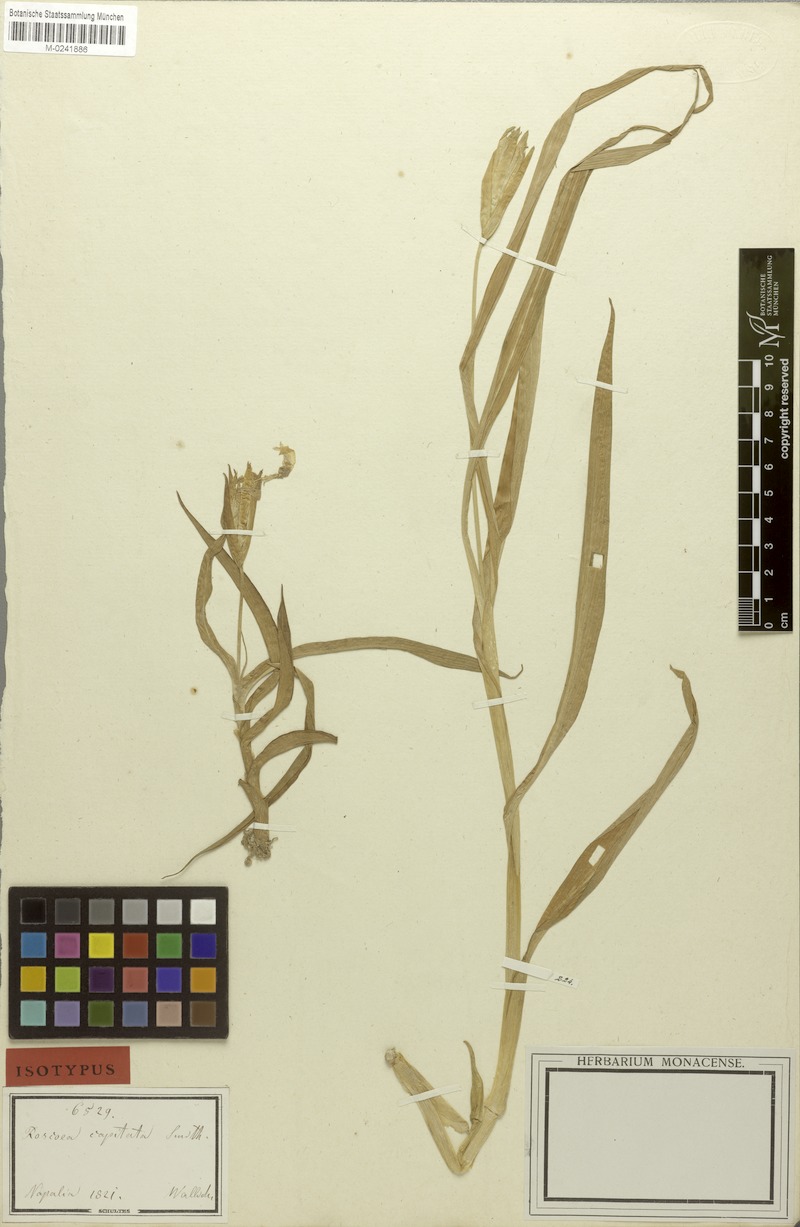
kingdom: Plantae
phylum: Tracheophyta
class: Liliopsida
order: Zingiberales
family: Zingiberaceae
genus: Roscoea
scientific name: Roscoea capitata
